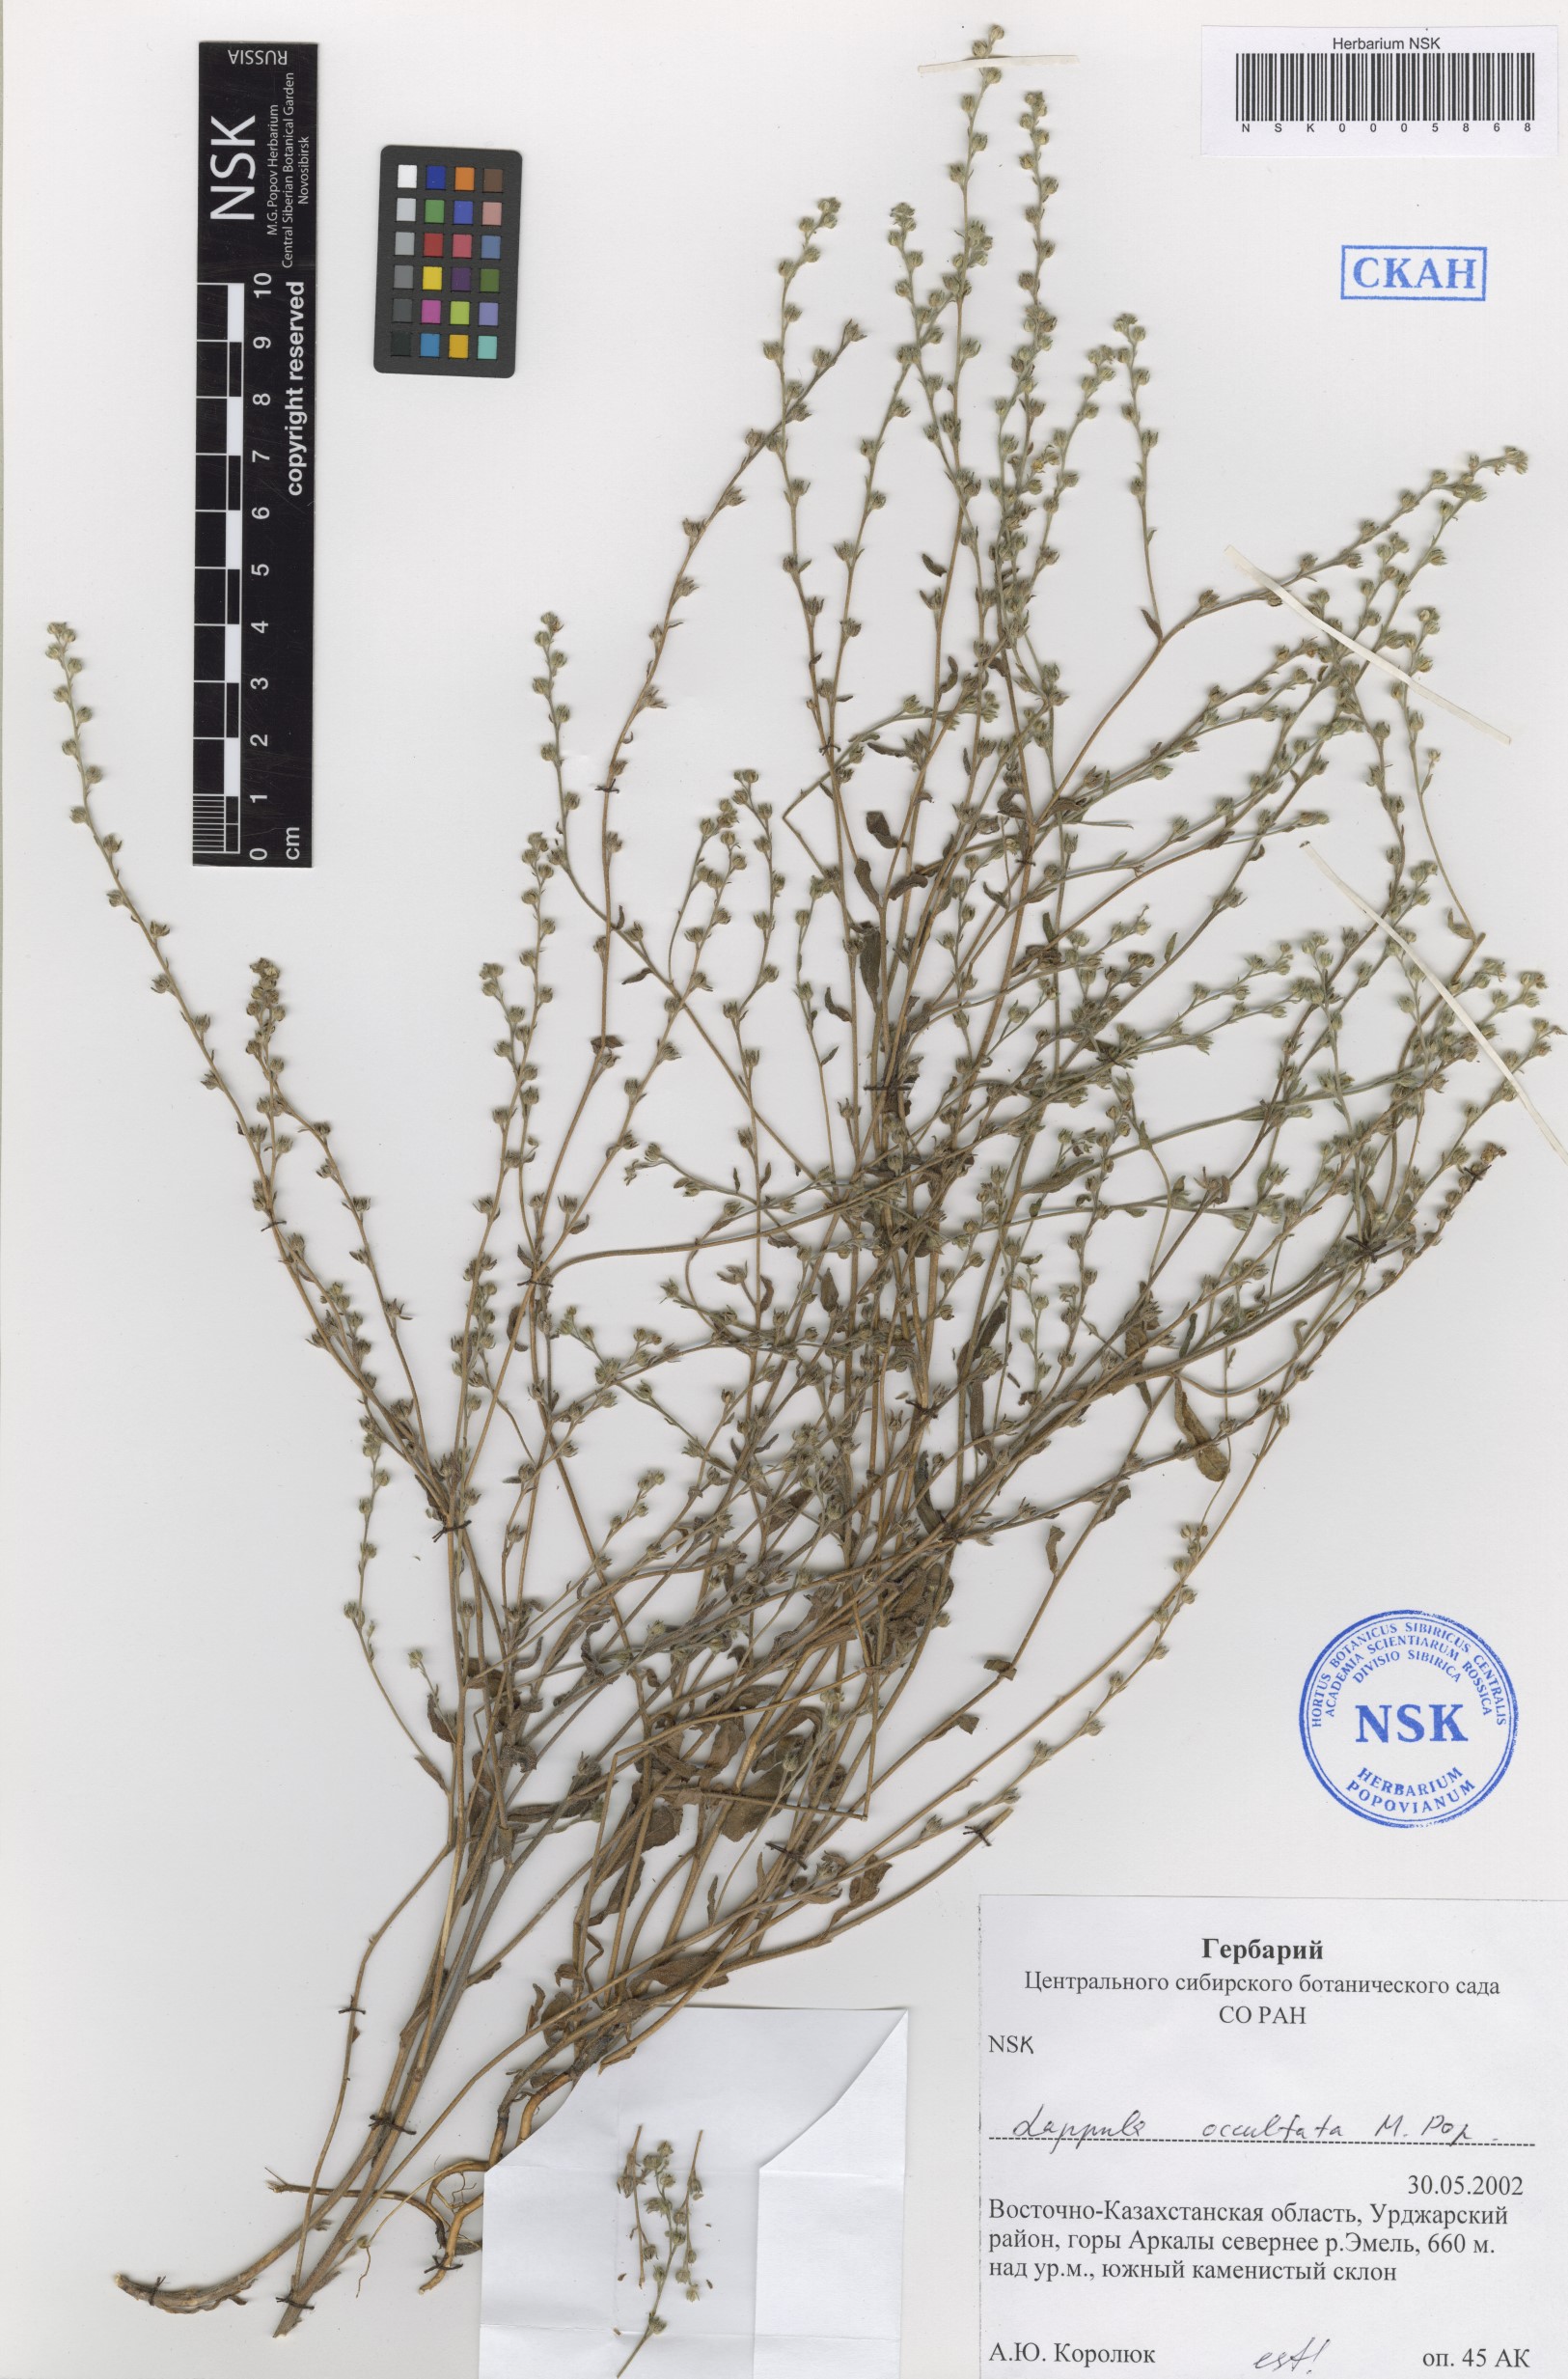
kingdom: Plantae
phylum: Tracheophyta
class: Magnoliopsida
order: Boraginales
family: Boraginaceae
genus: Lappula
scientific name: Lappula occultata
